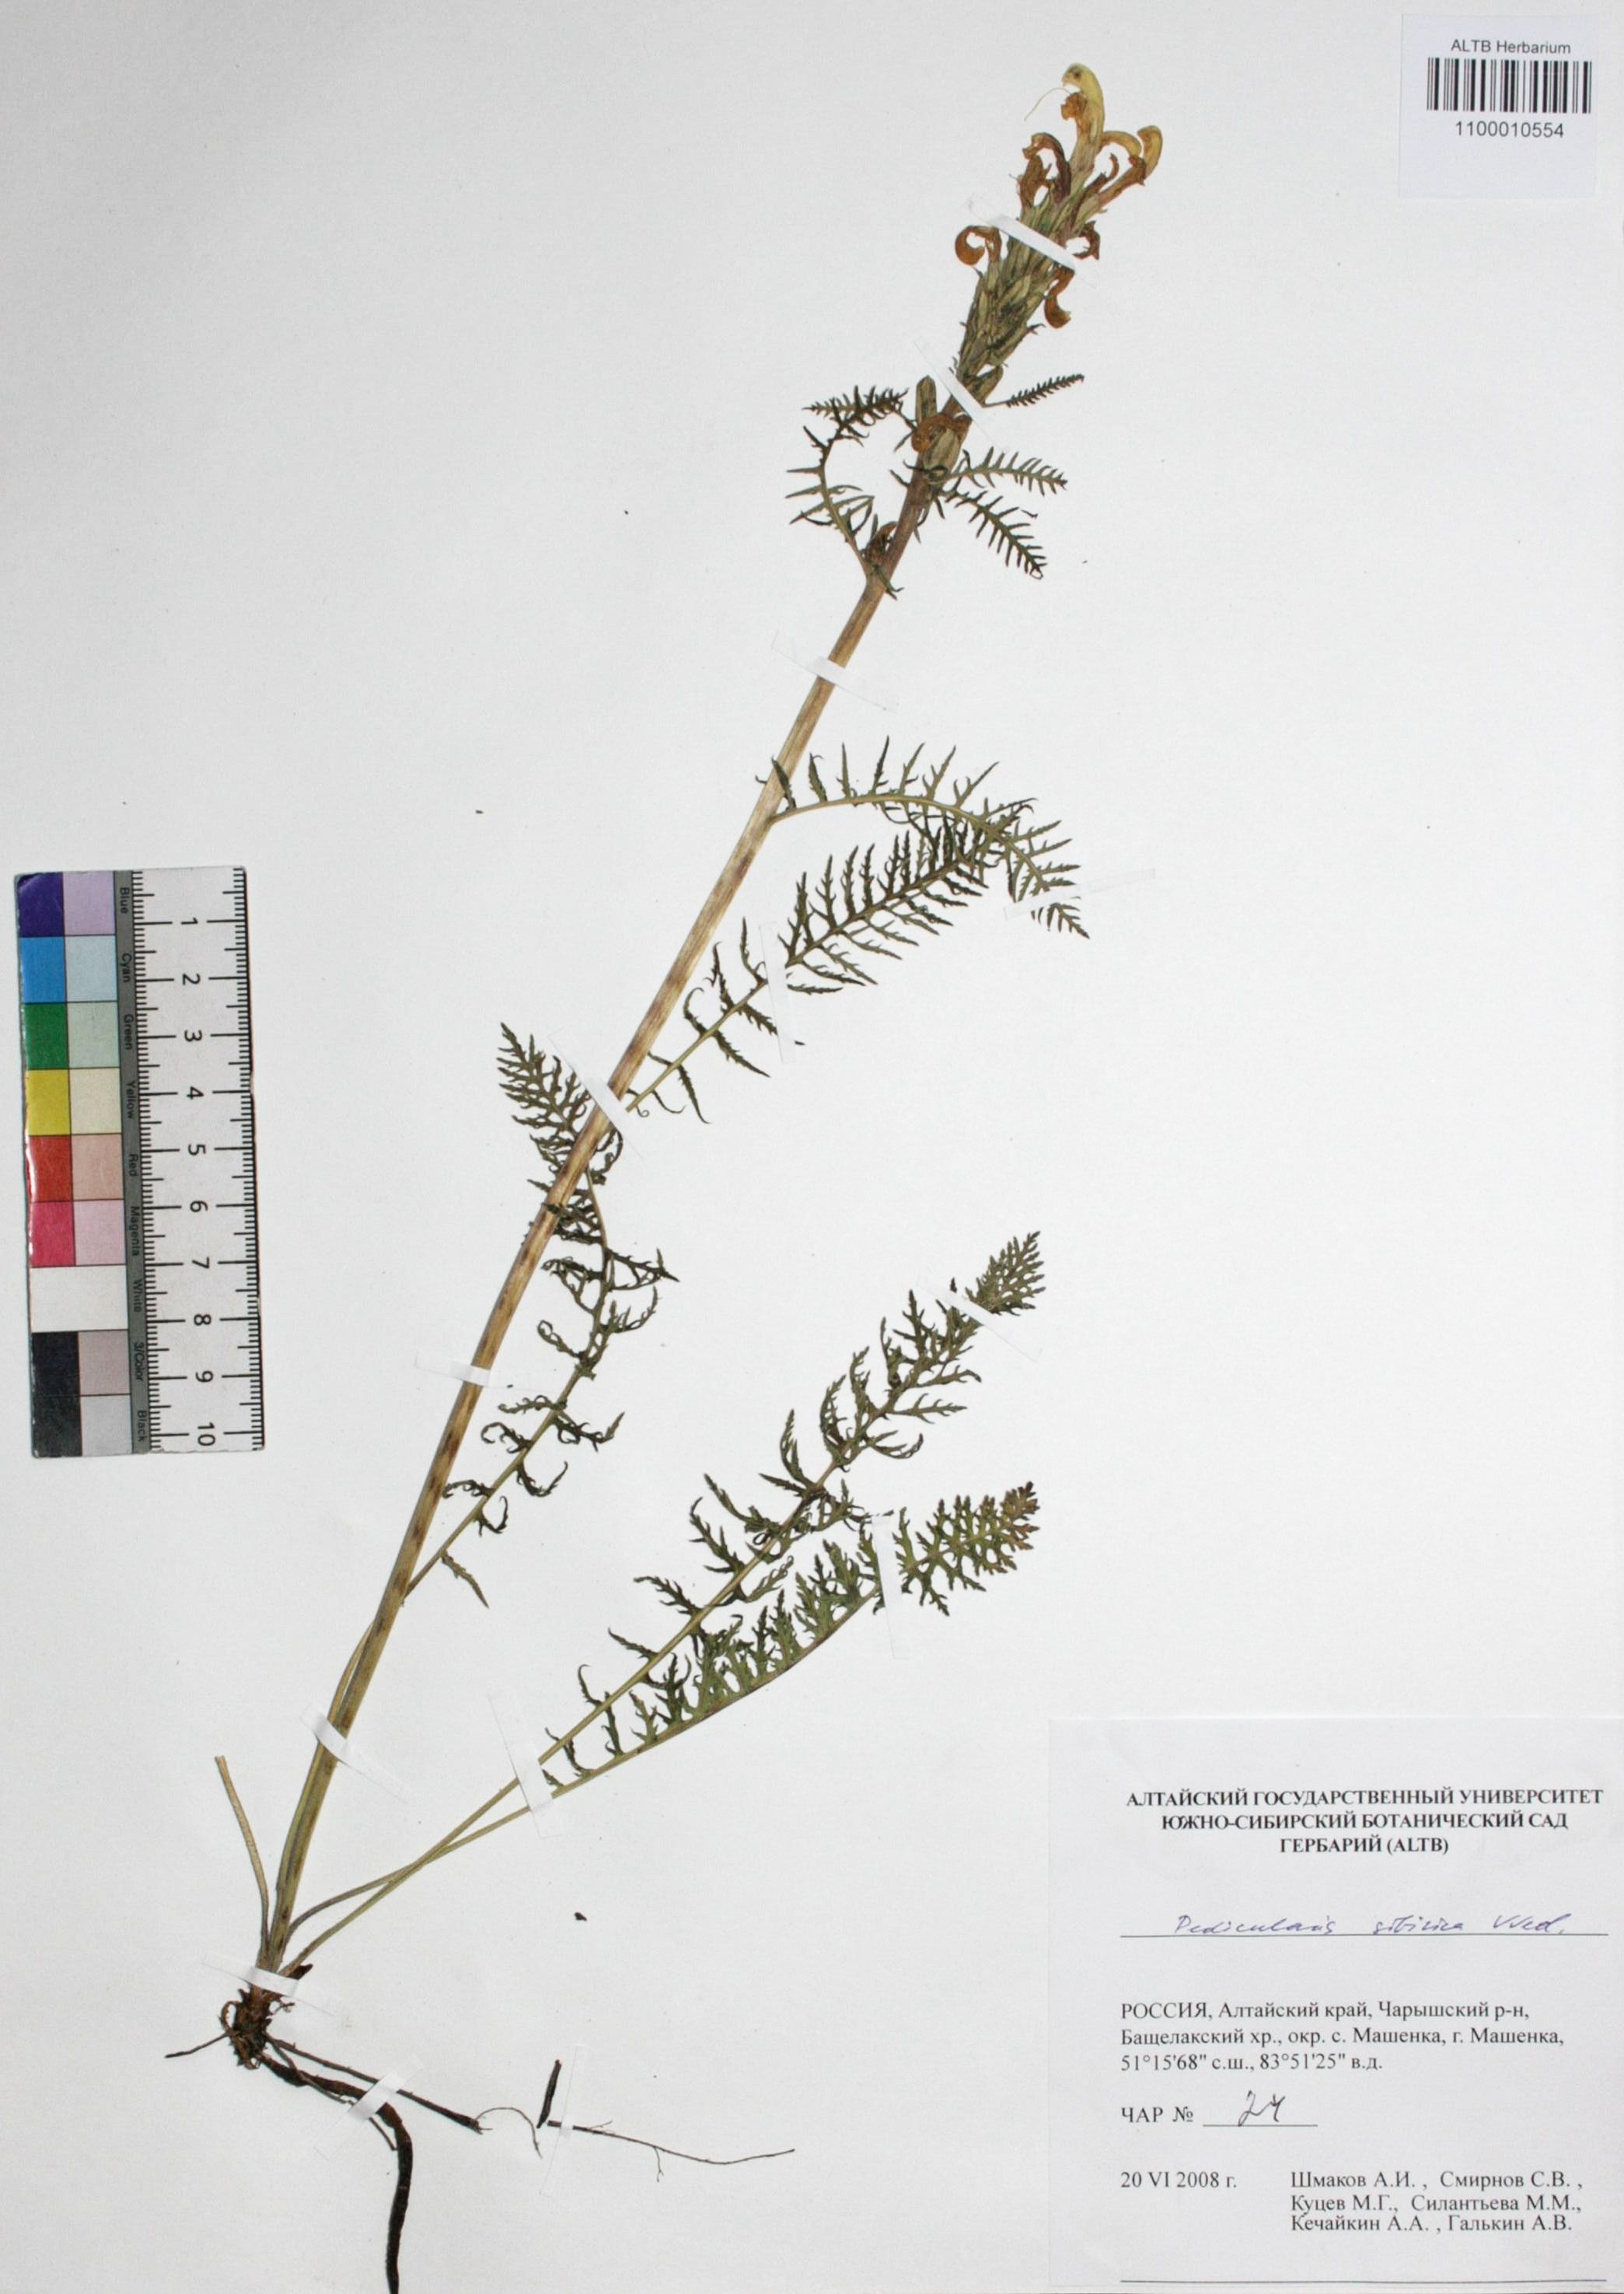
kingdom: Plantae
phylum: Tracheophyta
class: Magnoliopsida
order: Lamiales
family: Orobanchaceae
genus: Pedicularis
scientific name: Pedicularis sibirica
